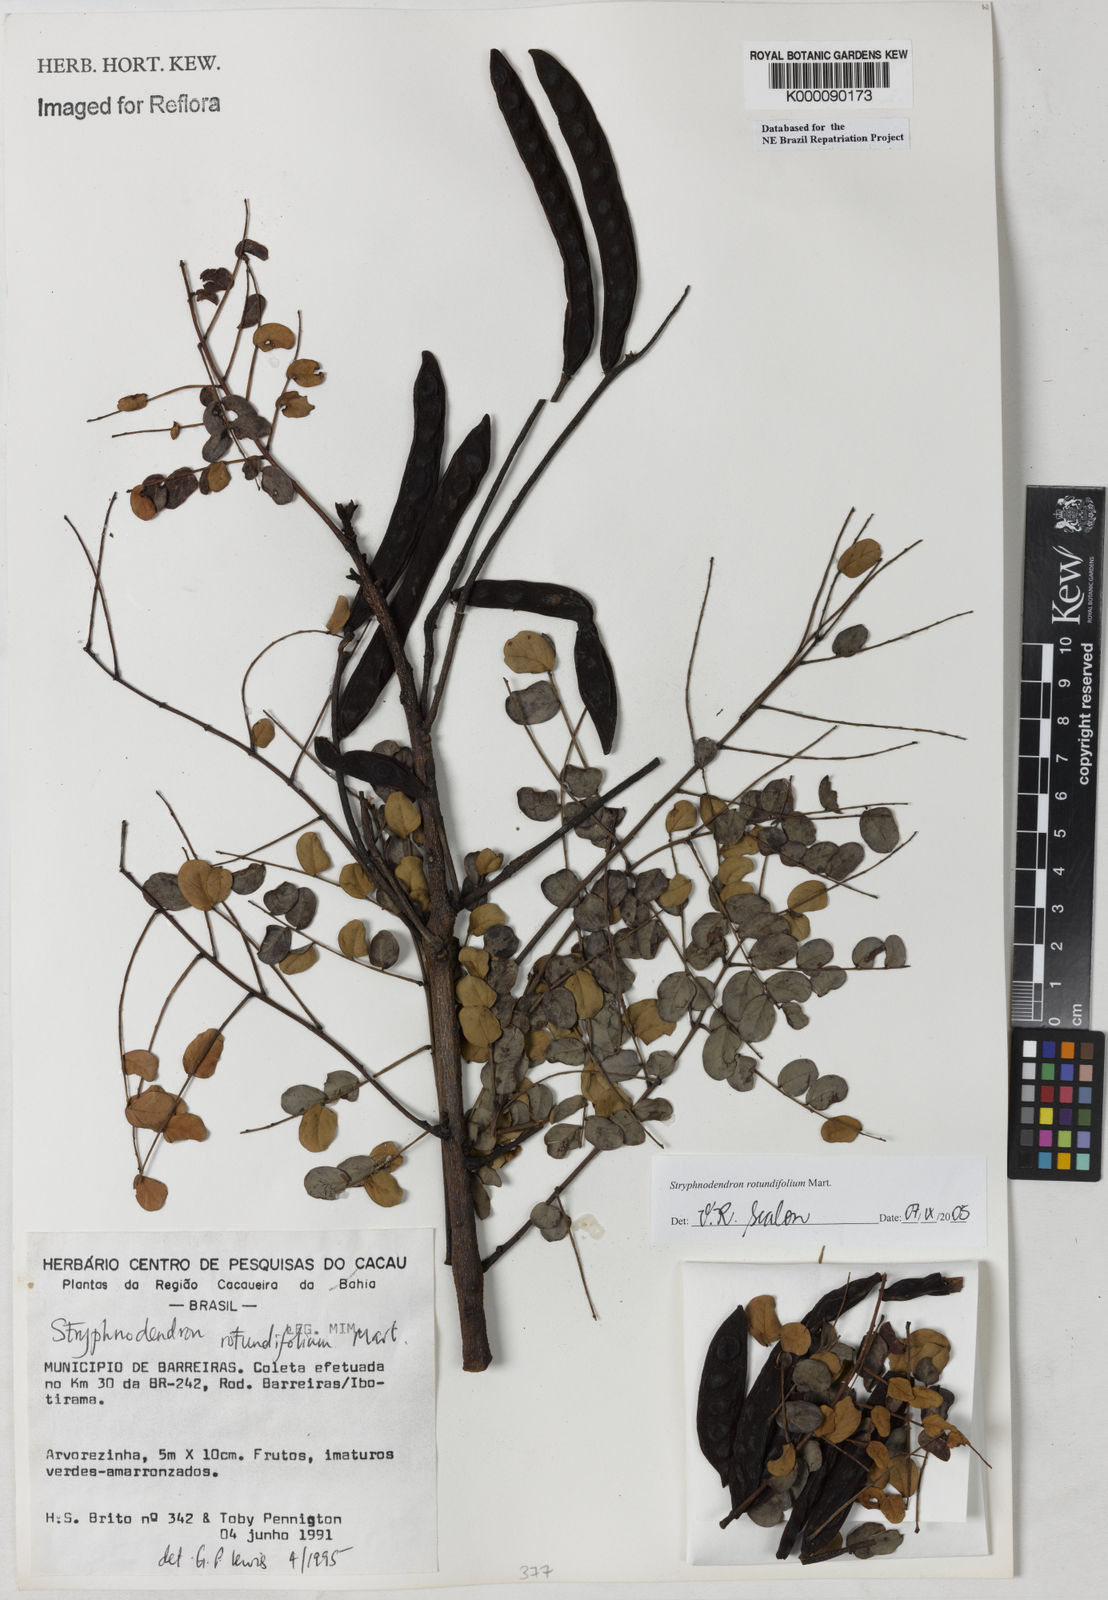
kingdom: Plantae
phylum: Tracheophyta
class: Magnoliopsida
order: Fabales
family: Fabaceae
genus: Stryphnodendron
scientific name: Stryphnodendron rotundifolium
